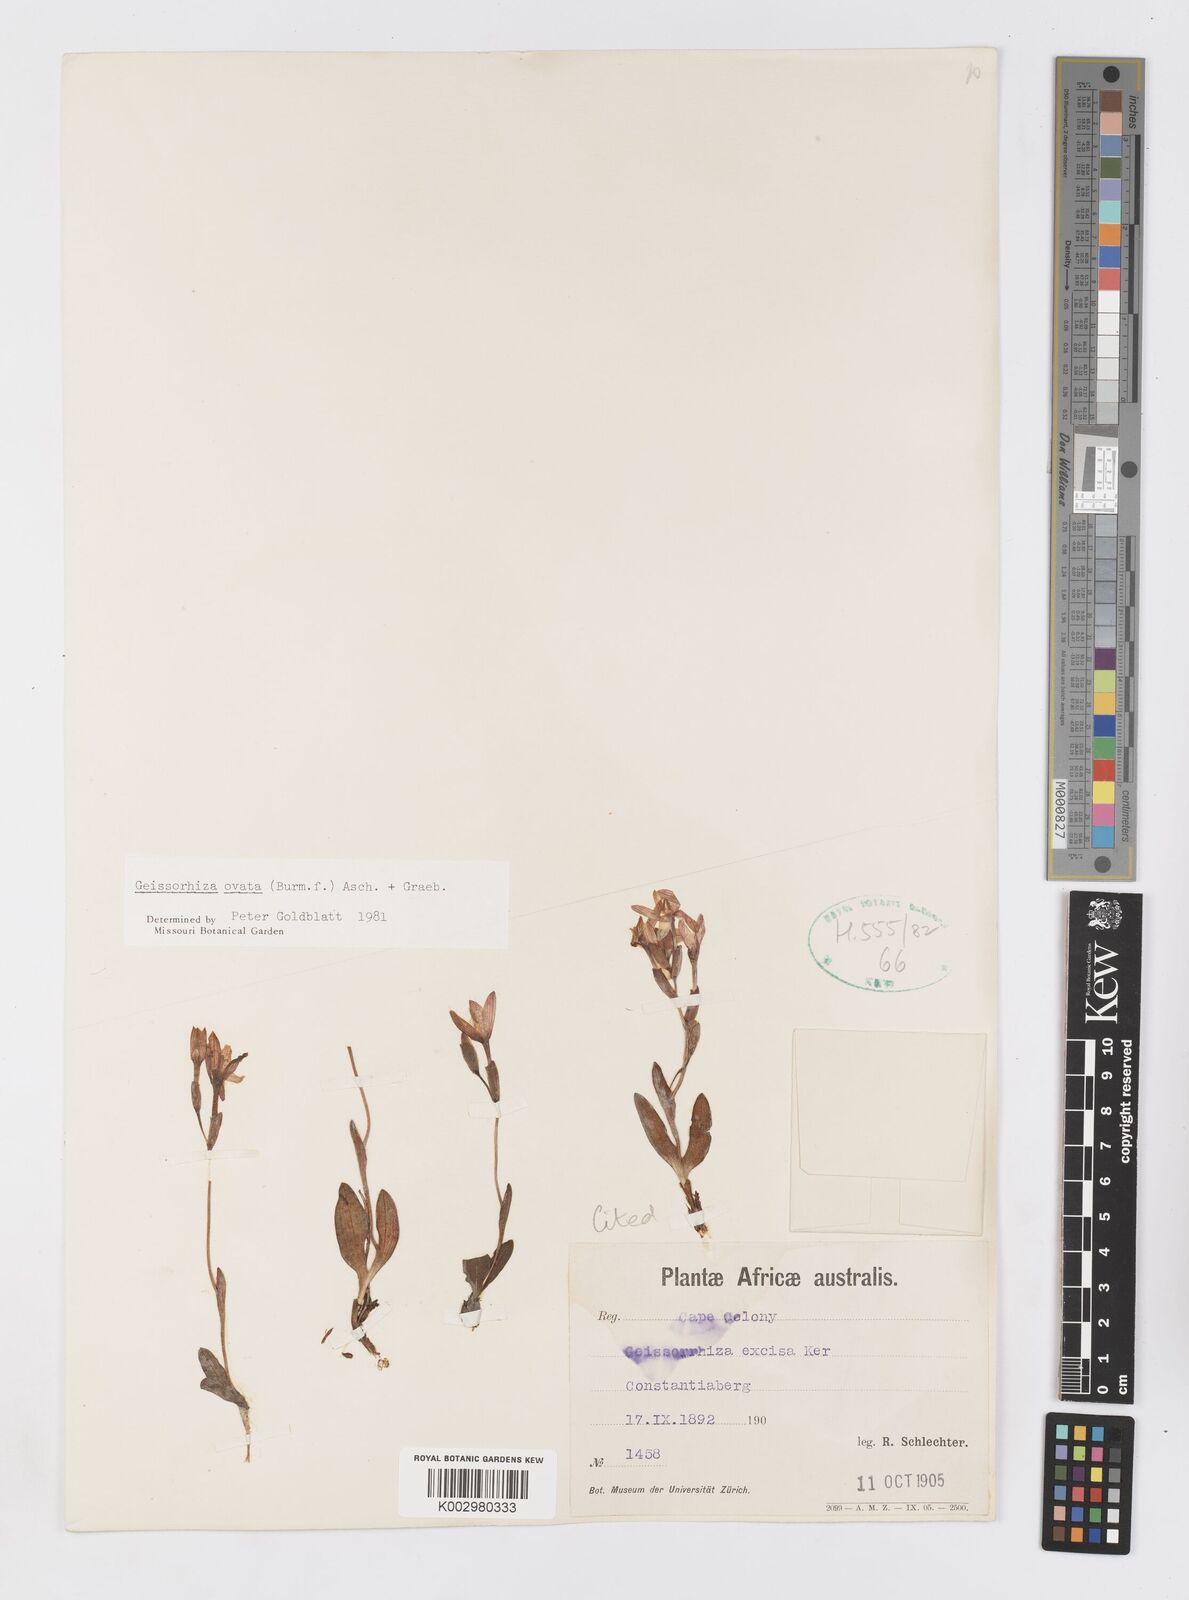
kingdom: Plantae
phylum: Tracheophyta
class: Liliopsida
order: Asparagales
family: Iridaceae
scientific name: Iridaceae
